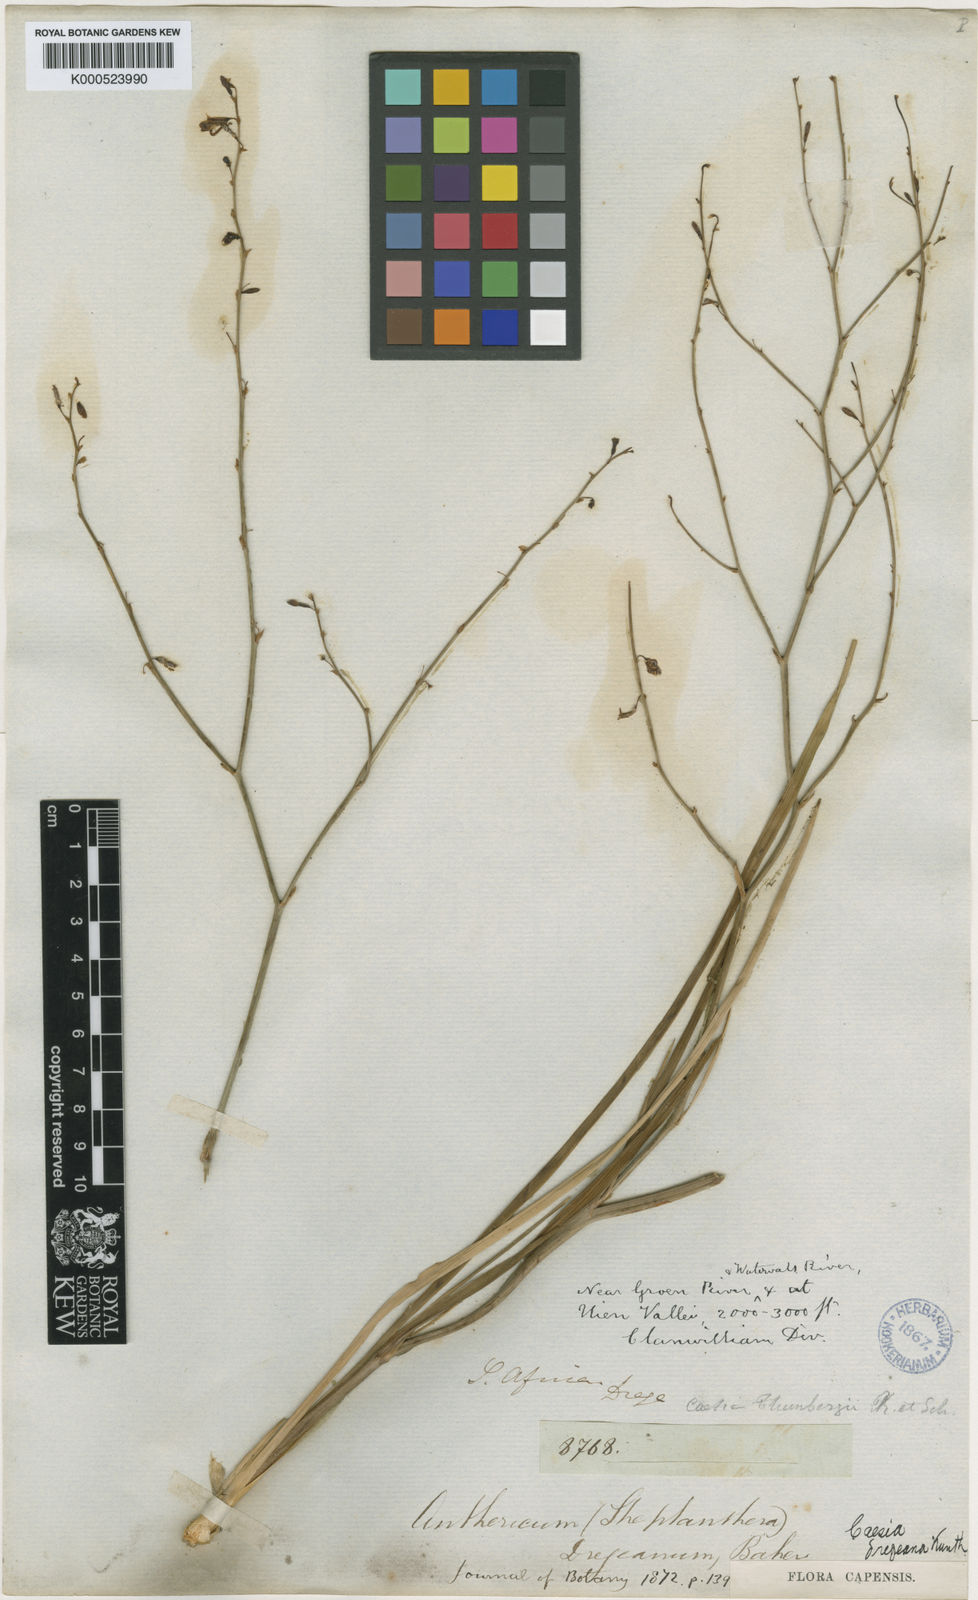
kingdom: Plantae
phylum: Tracheophyta
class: Liliopsida
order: Asparagales
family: Asphodelaceae
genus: Caesia
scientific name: Caesia contorta
